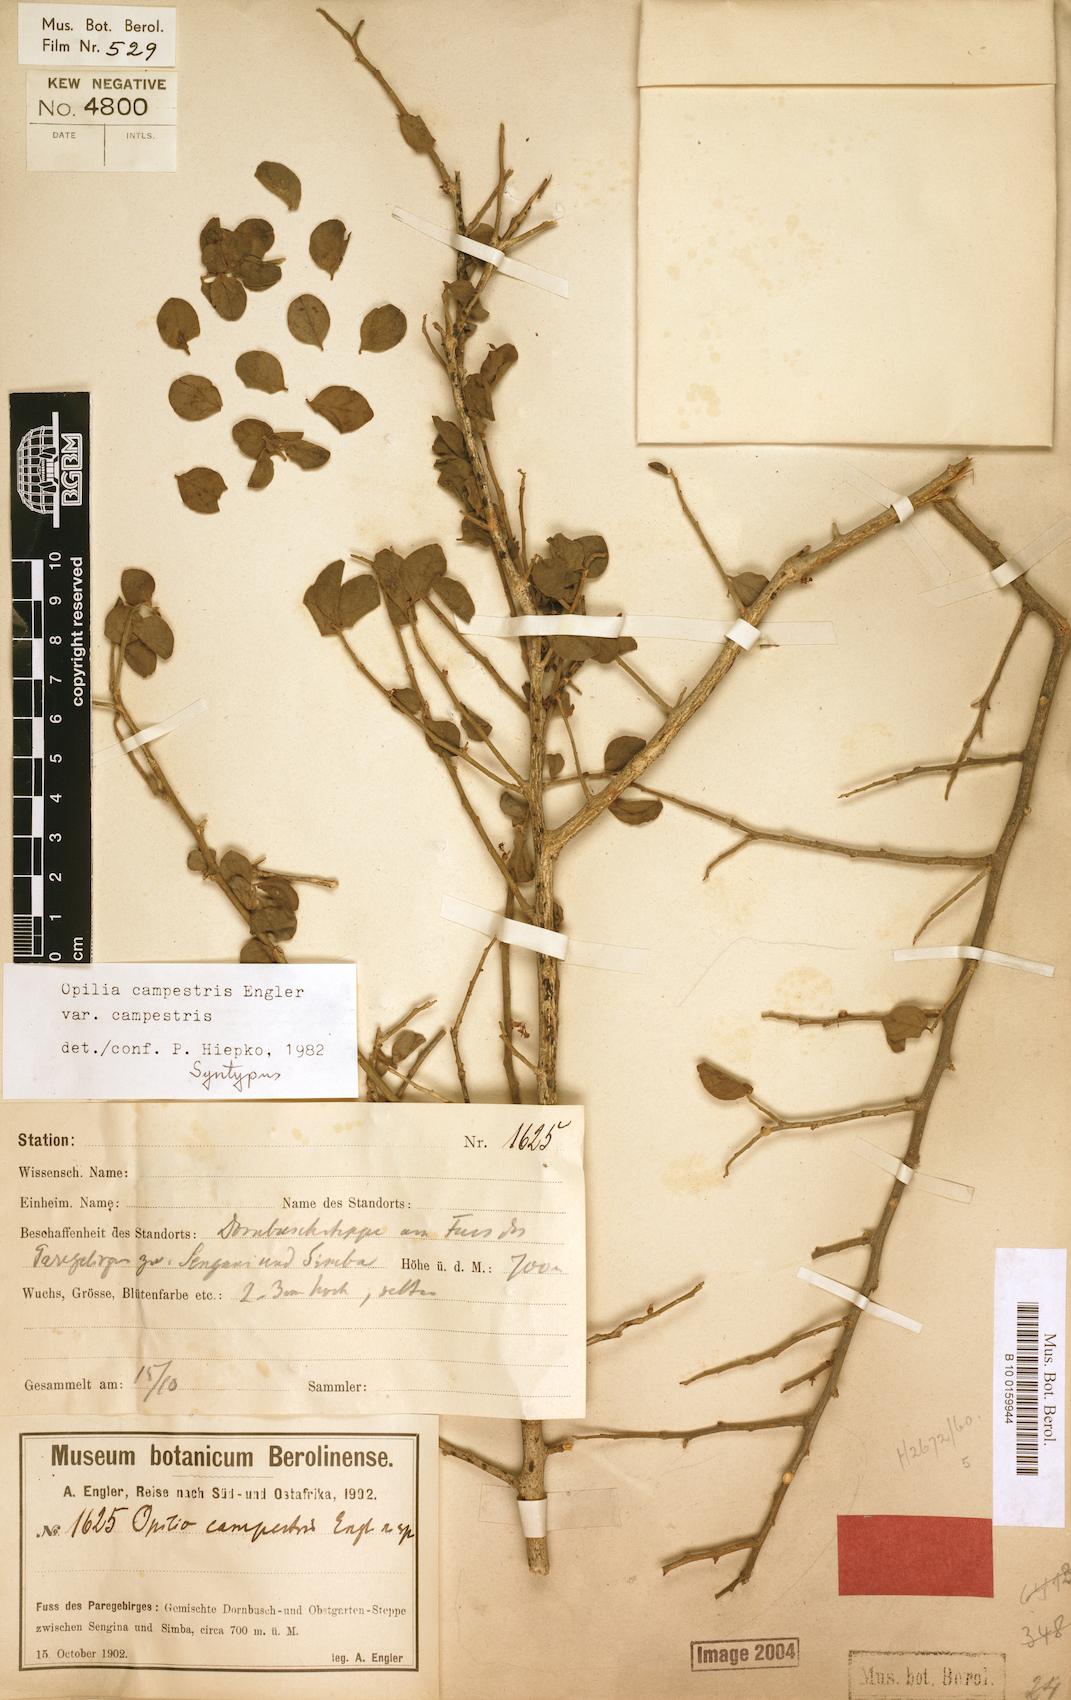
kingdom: Plantae
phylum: Tracheophyta
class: Magnoliopsida
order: Santalales
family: Opiliaceae
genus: Opilia
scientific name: Opilia campestris
